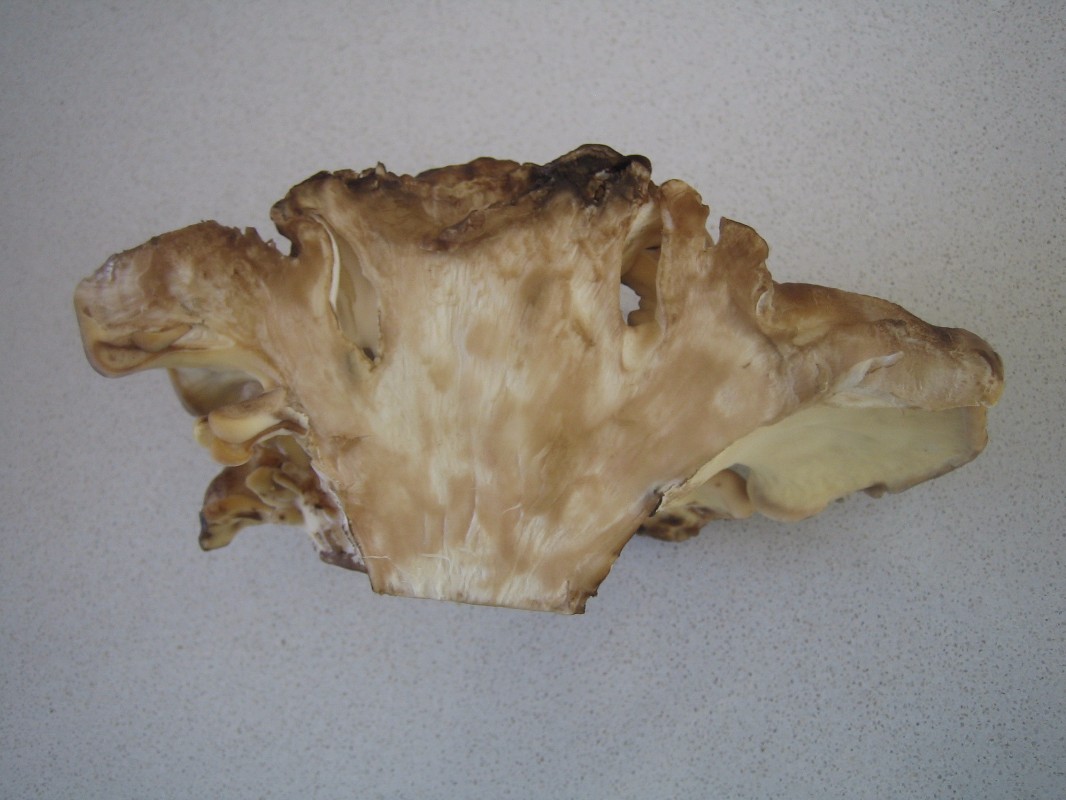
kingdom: Fungi
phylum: Basidiomycota
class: Agaricomycetes
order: Polyporales
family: Meripilaceae
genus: Meripilus
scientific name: Meripilus giganteus
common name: kæmpeporesvamp
